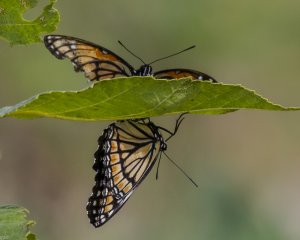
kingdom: Animalia
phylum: Arthropoda
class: Insecta
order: Lepidoptera
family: Nymphalidae
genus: Limenitis
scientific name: Limenitis archippus
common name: Viceroy
